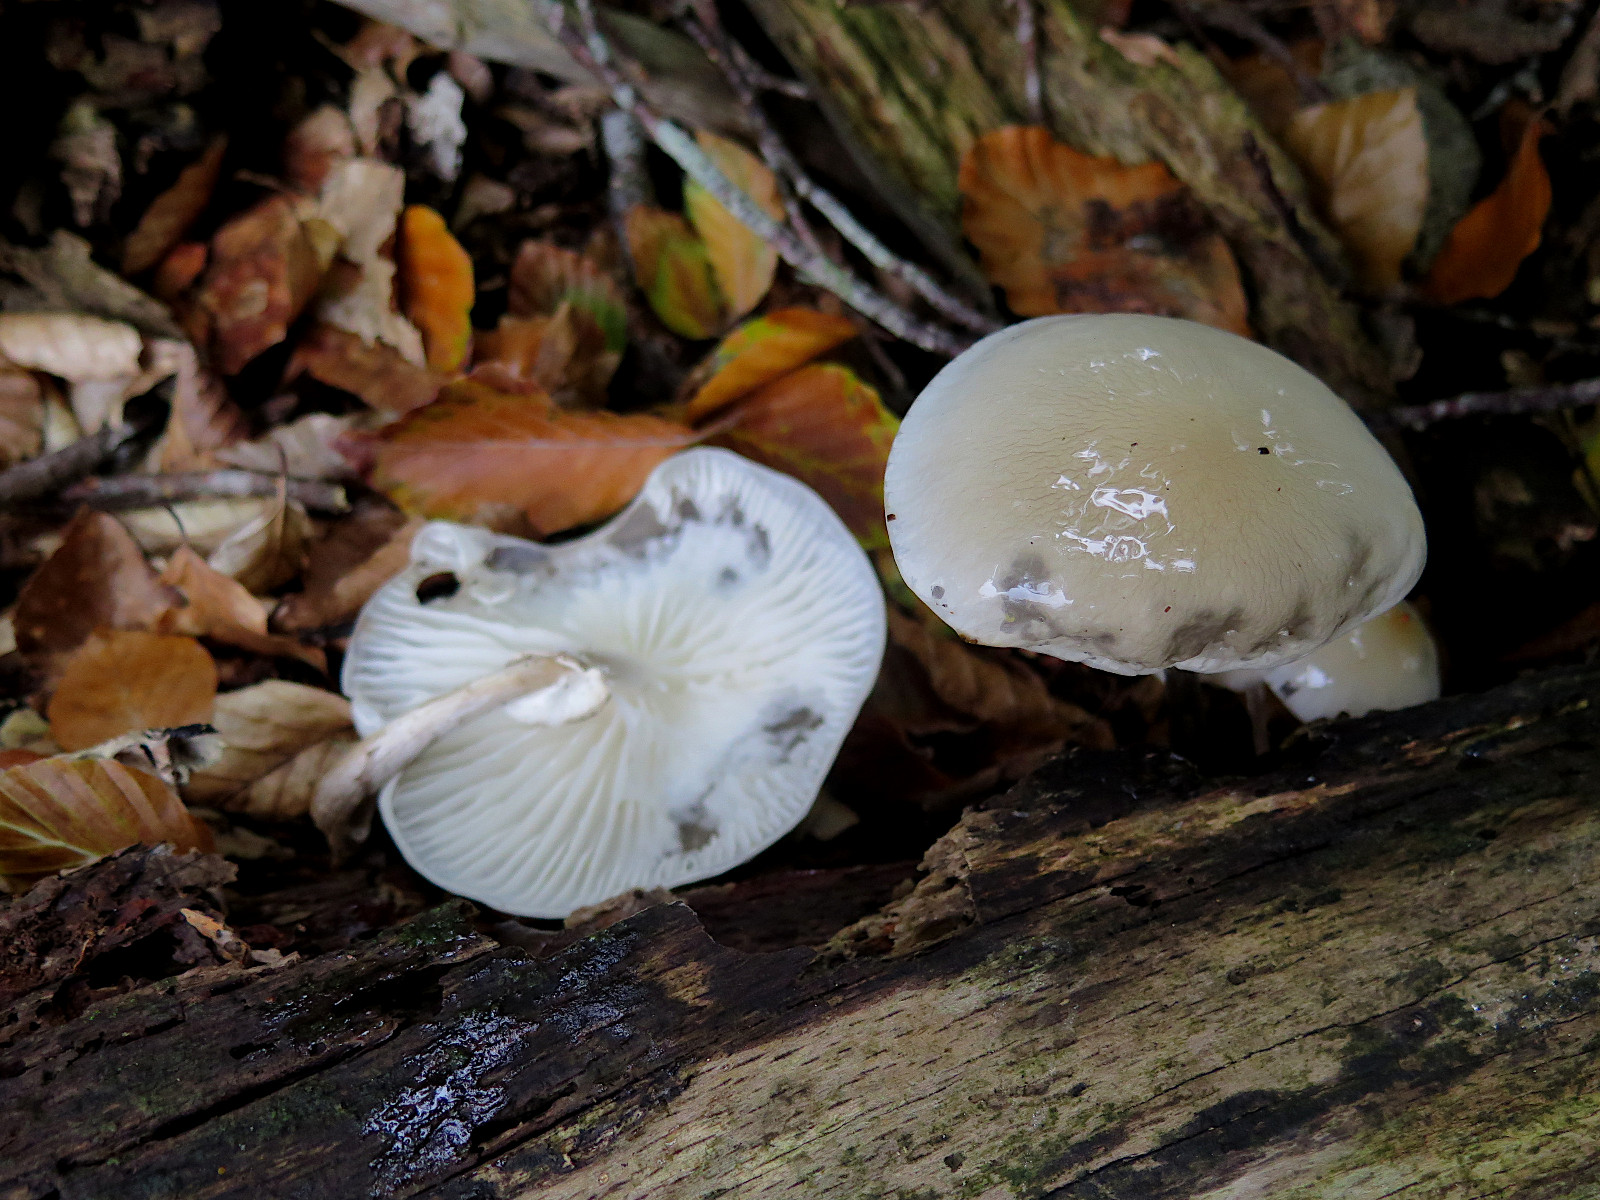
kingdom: Fungi
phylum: Basidiomycota
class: Agaricomycetes
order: Agaricales
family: Physalacriaceae
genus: Mucidula
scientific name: Mucidula mucida
